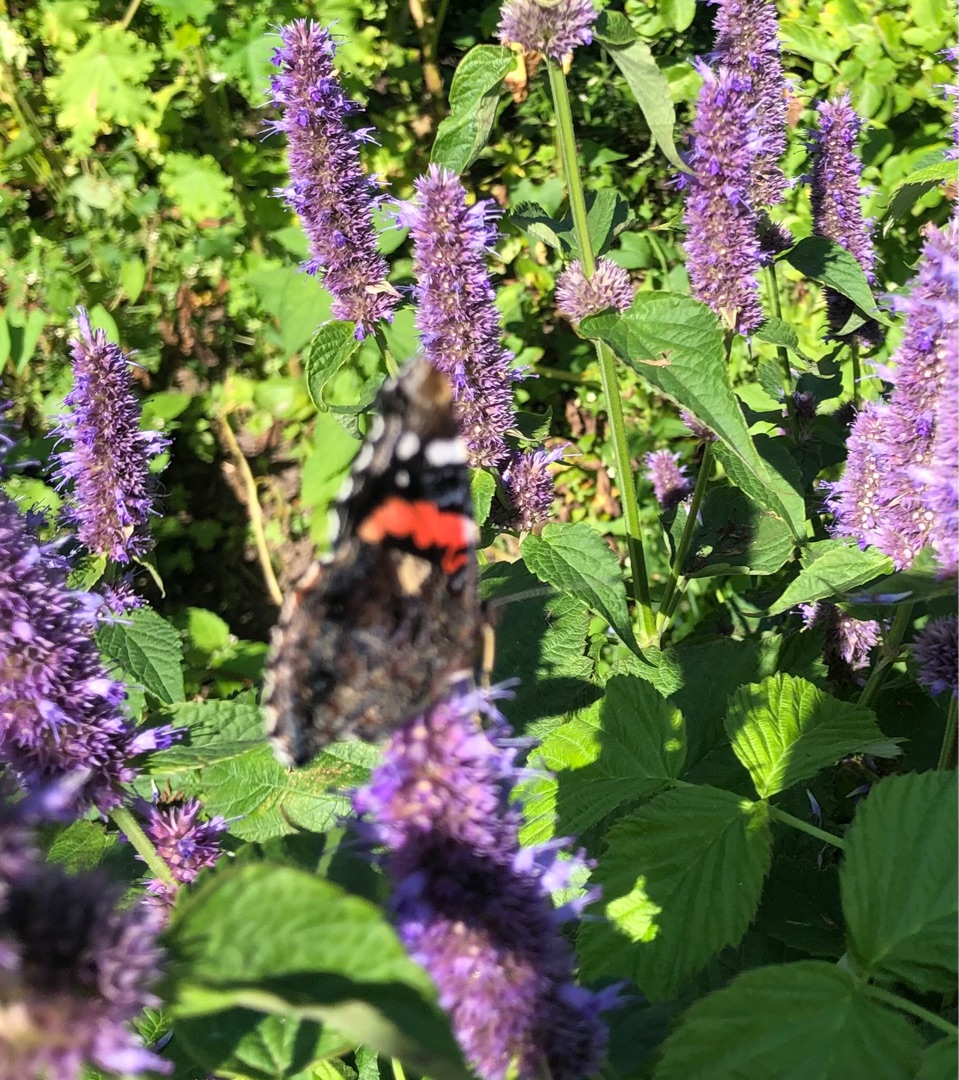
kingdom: Animalia
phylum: Arthropoda
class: Insecta
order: Lepidoptera
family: Nymphalidae
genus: Vanessa
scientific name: Vanessa atalanta
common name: Admiral
